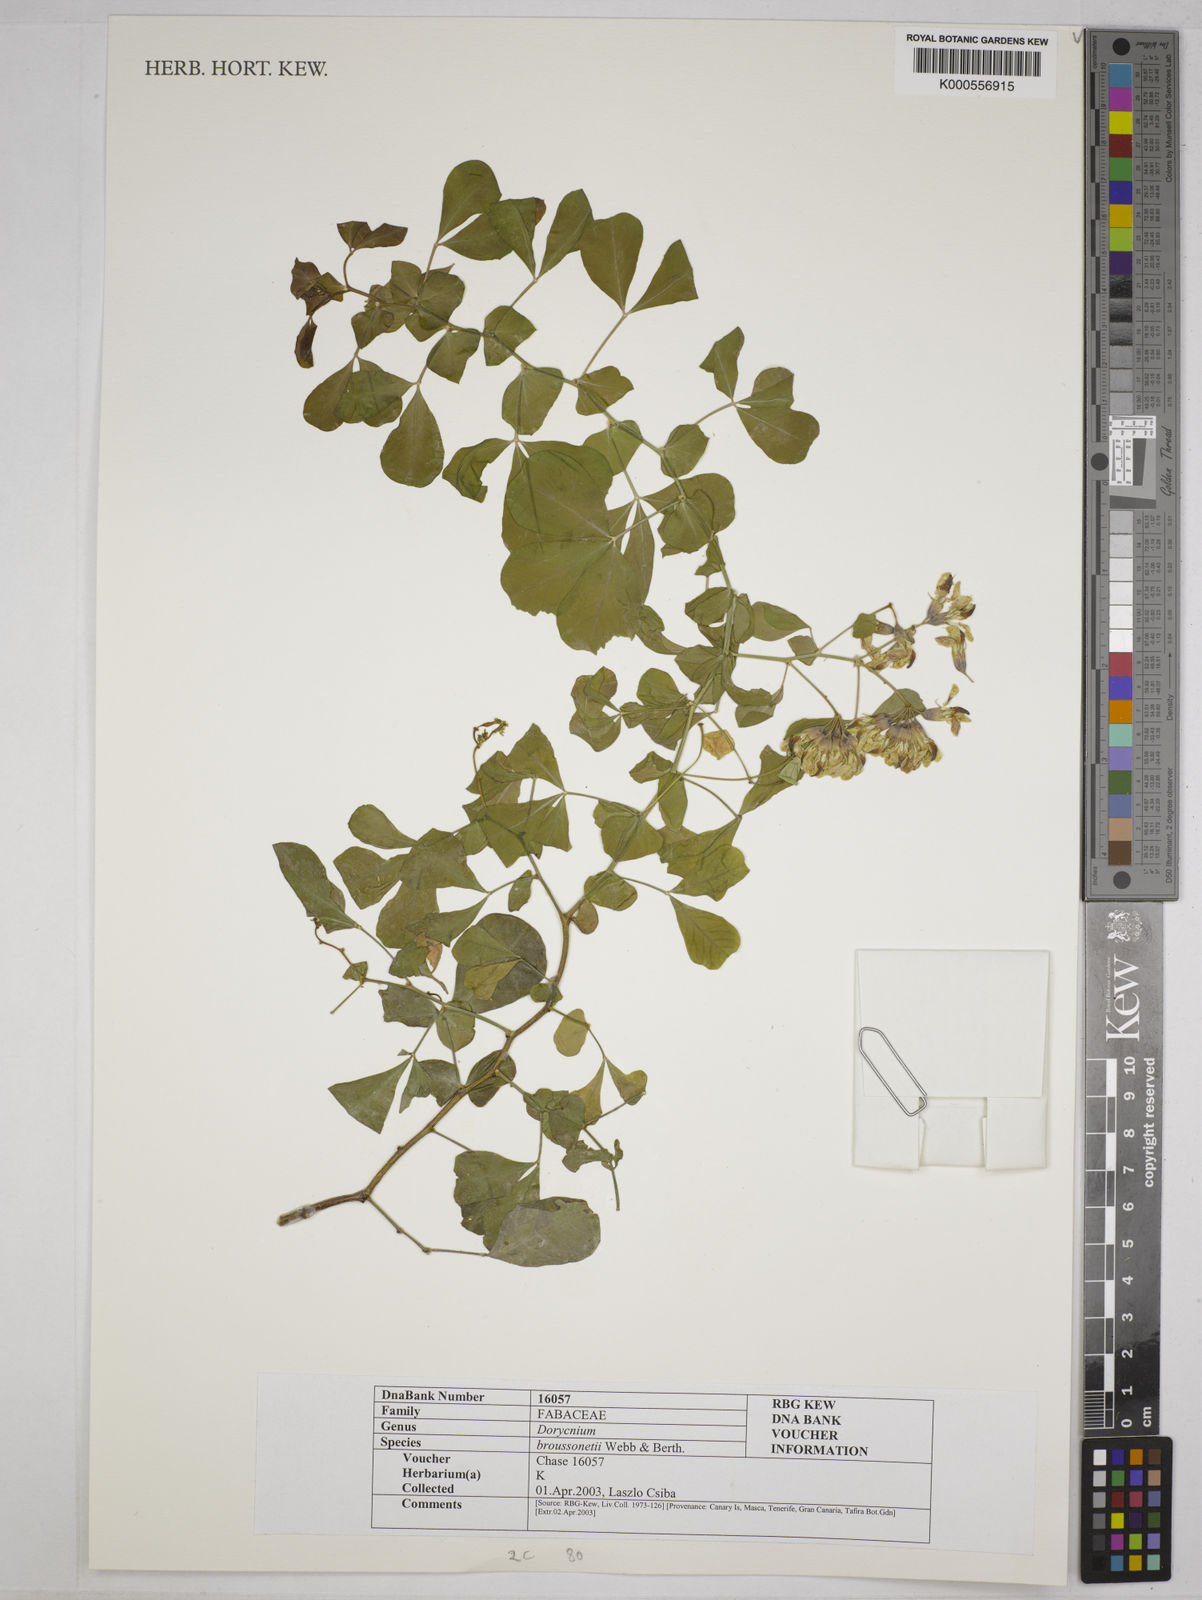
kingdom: Plantae
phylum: Tracheophyta
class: Magnoliopsida
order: Fabales
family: Fabaceae
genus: Lotus
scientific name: Lotus broussonetii
